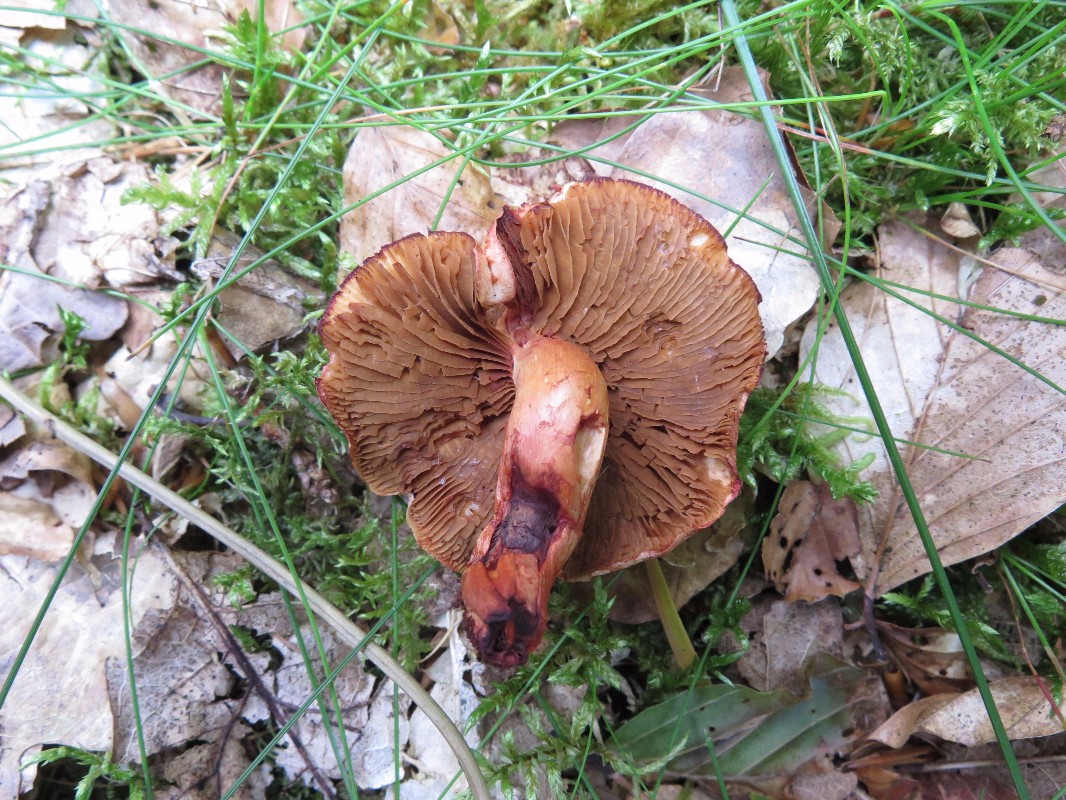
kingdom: Fungi
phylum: Basidiomycota
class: Agaricomycetes
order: Agaricales
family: Cortinariaceae
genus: Cortinarius
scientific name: Cortinarius bolaris
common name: cinnoberskællet slørhat
